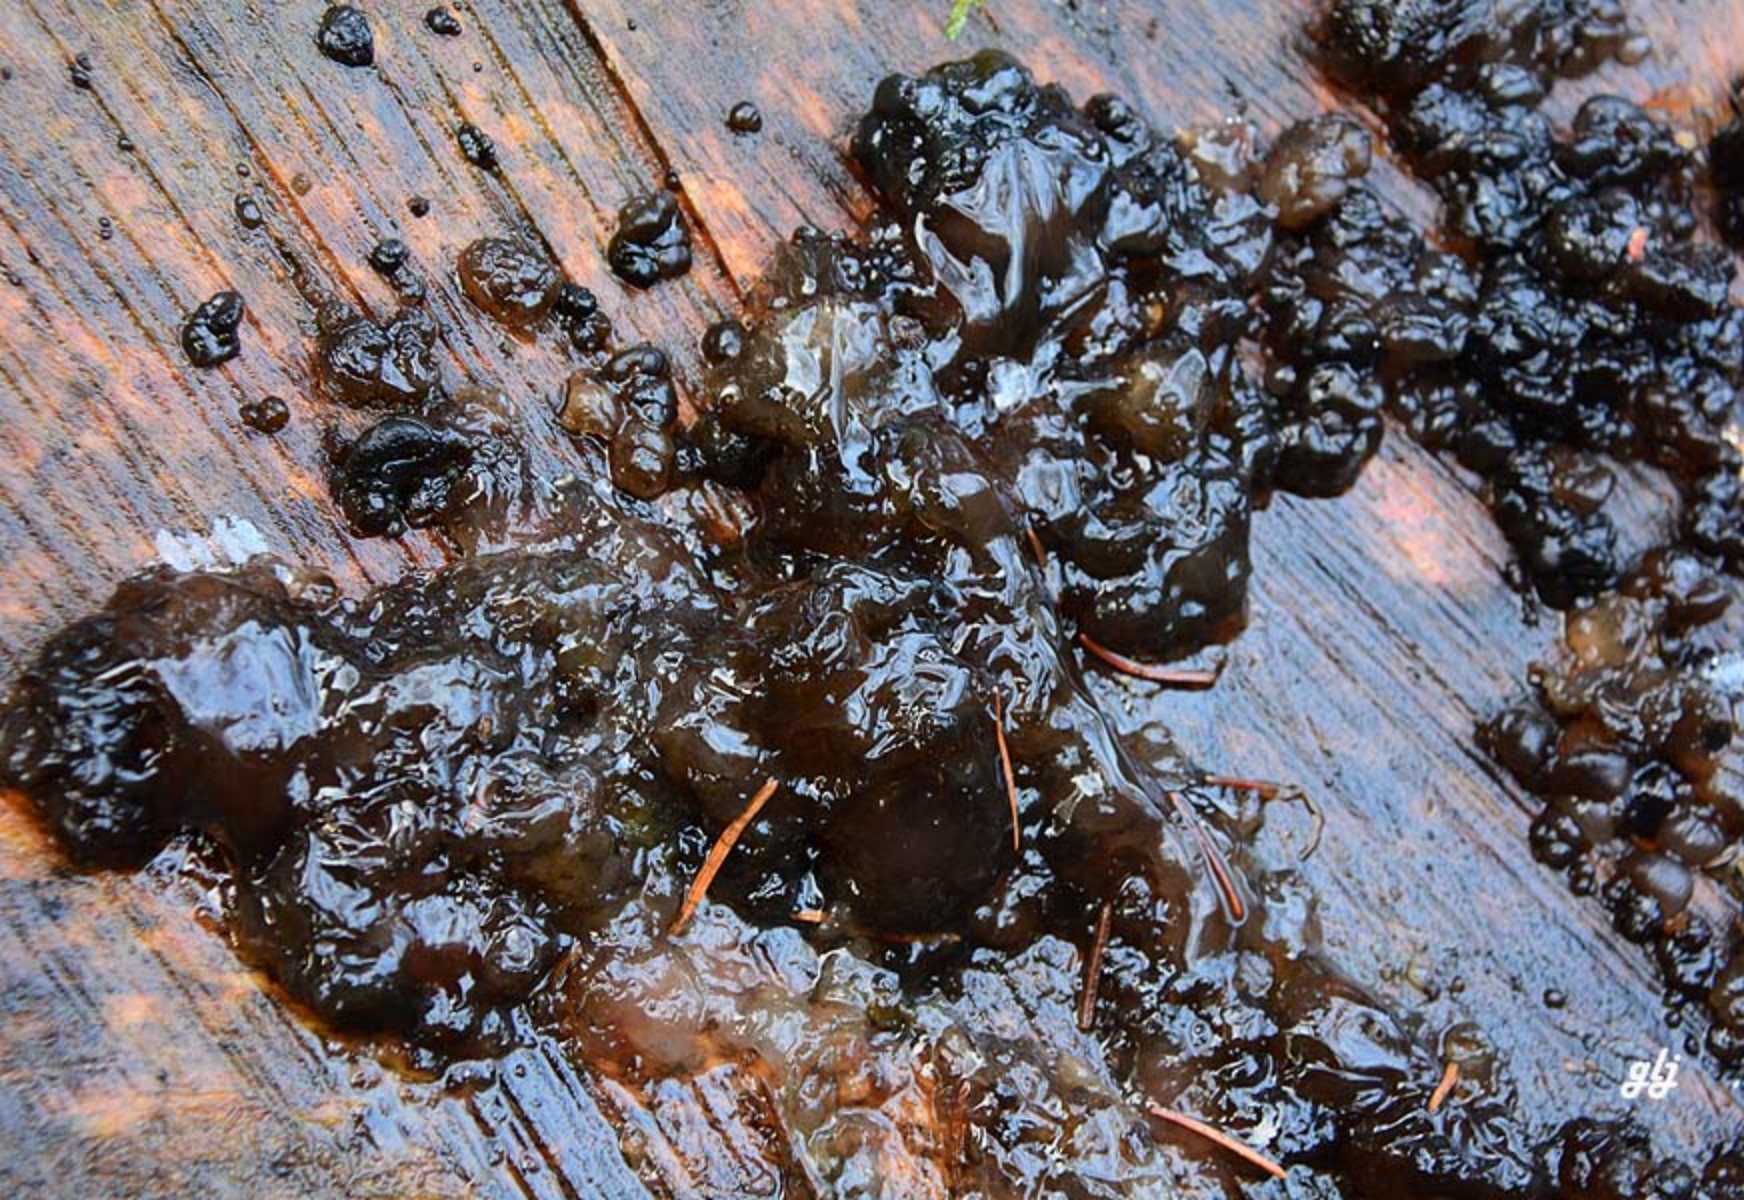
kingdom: Fungi
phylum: Basidiomycota
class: Tremellomycetes
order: Tremellales
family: Exidiaceae
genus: Exidia
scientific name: Exidia
